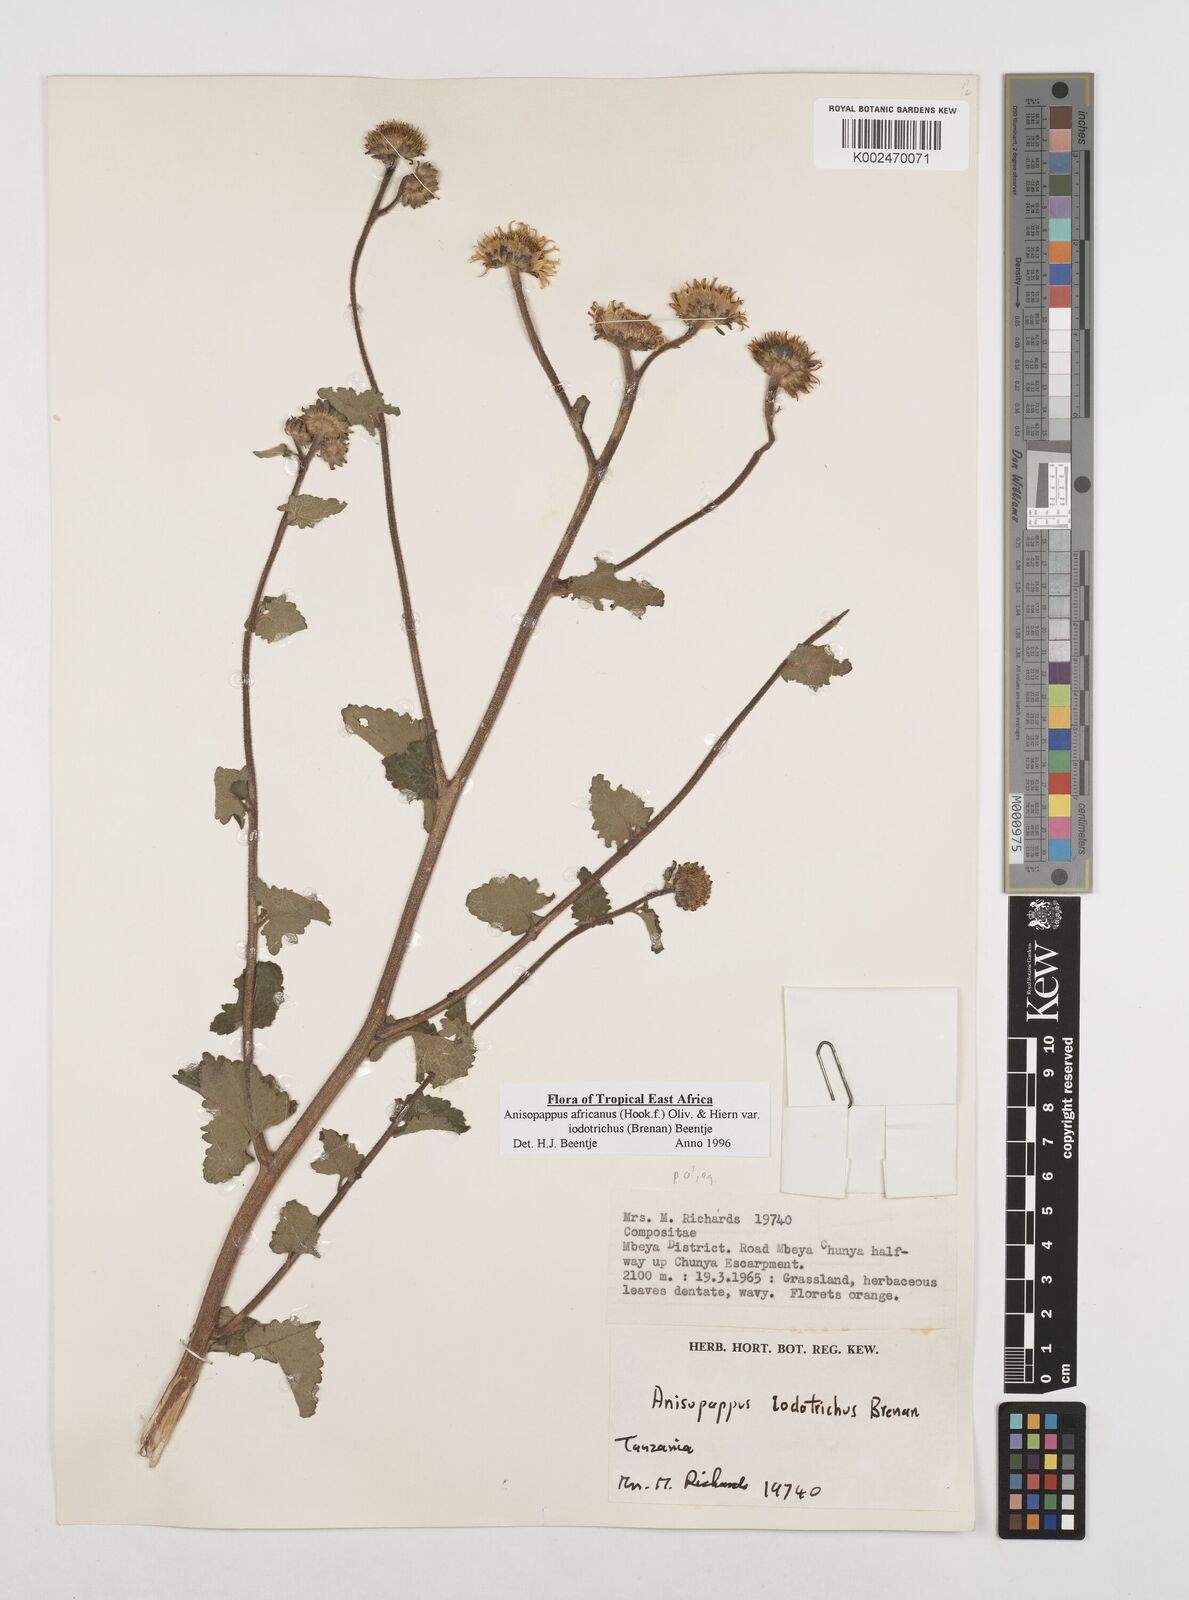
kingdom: Plantae
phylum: Tracheophyta
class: Magnoliopsida
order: Asterales
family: Asteraceae
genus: Anisopappus
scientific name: Anisopappus africanus
